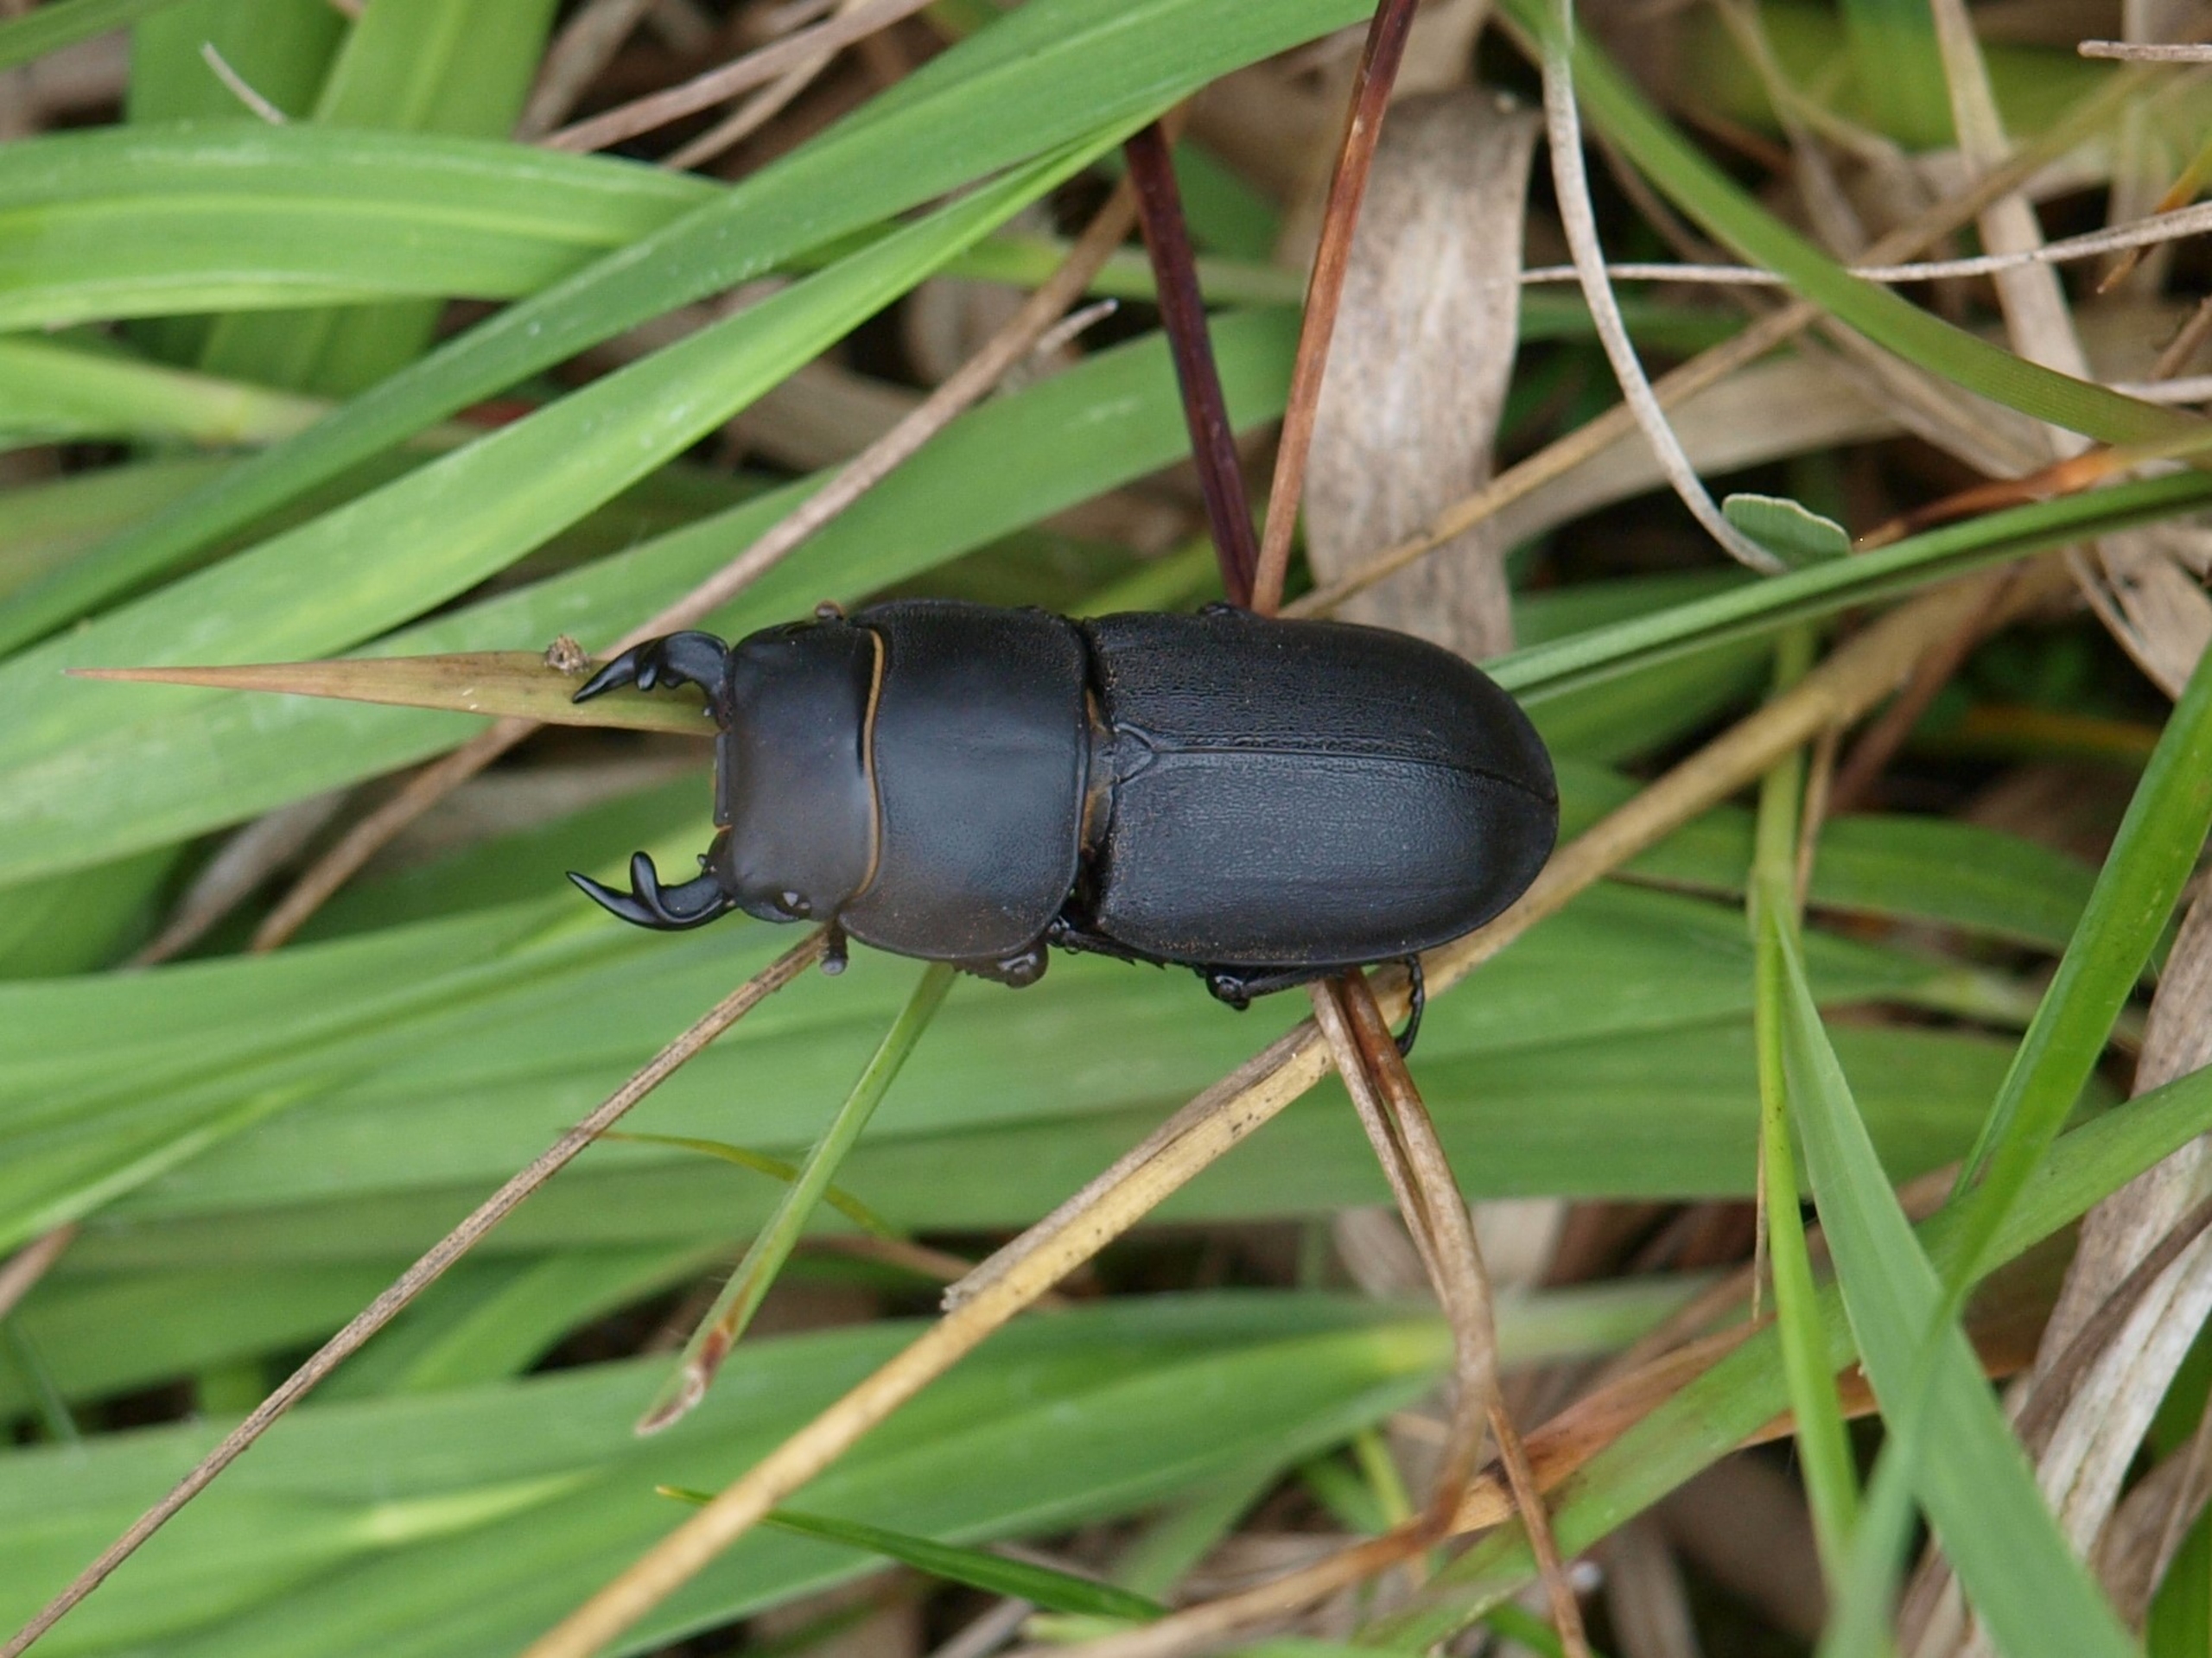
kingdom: Animalia
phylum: Arthropoda
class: Insecta
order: Coleoptera
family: Lucanidae
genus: Dorcus
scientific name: Dorcus parallelipipedus
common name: Bøghjort
